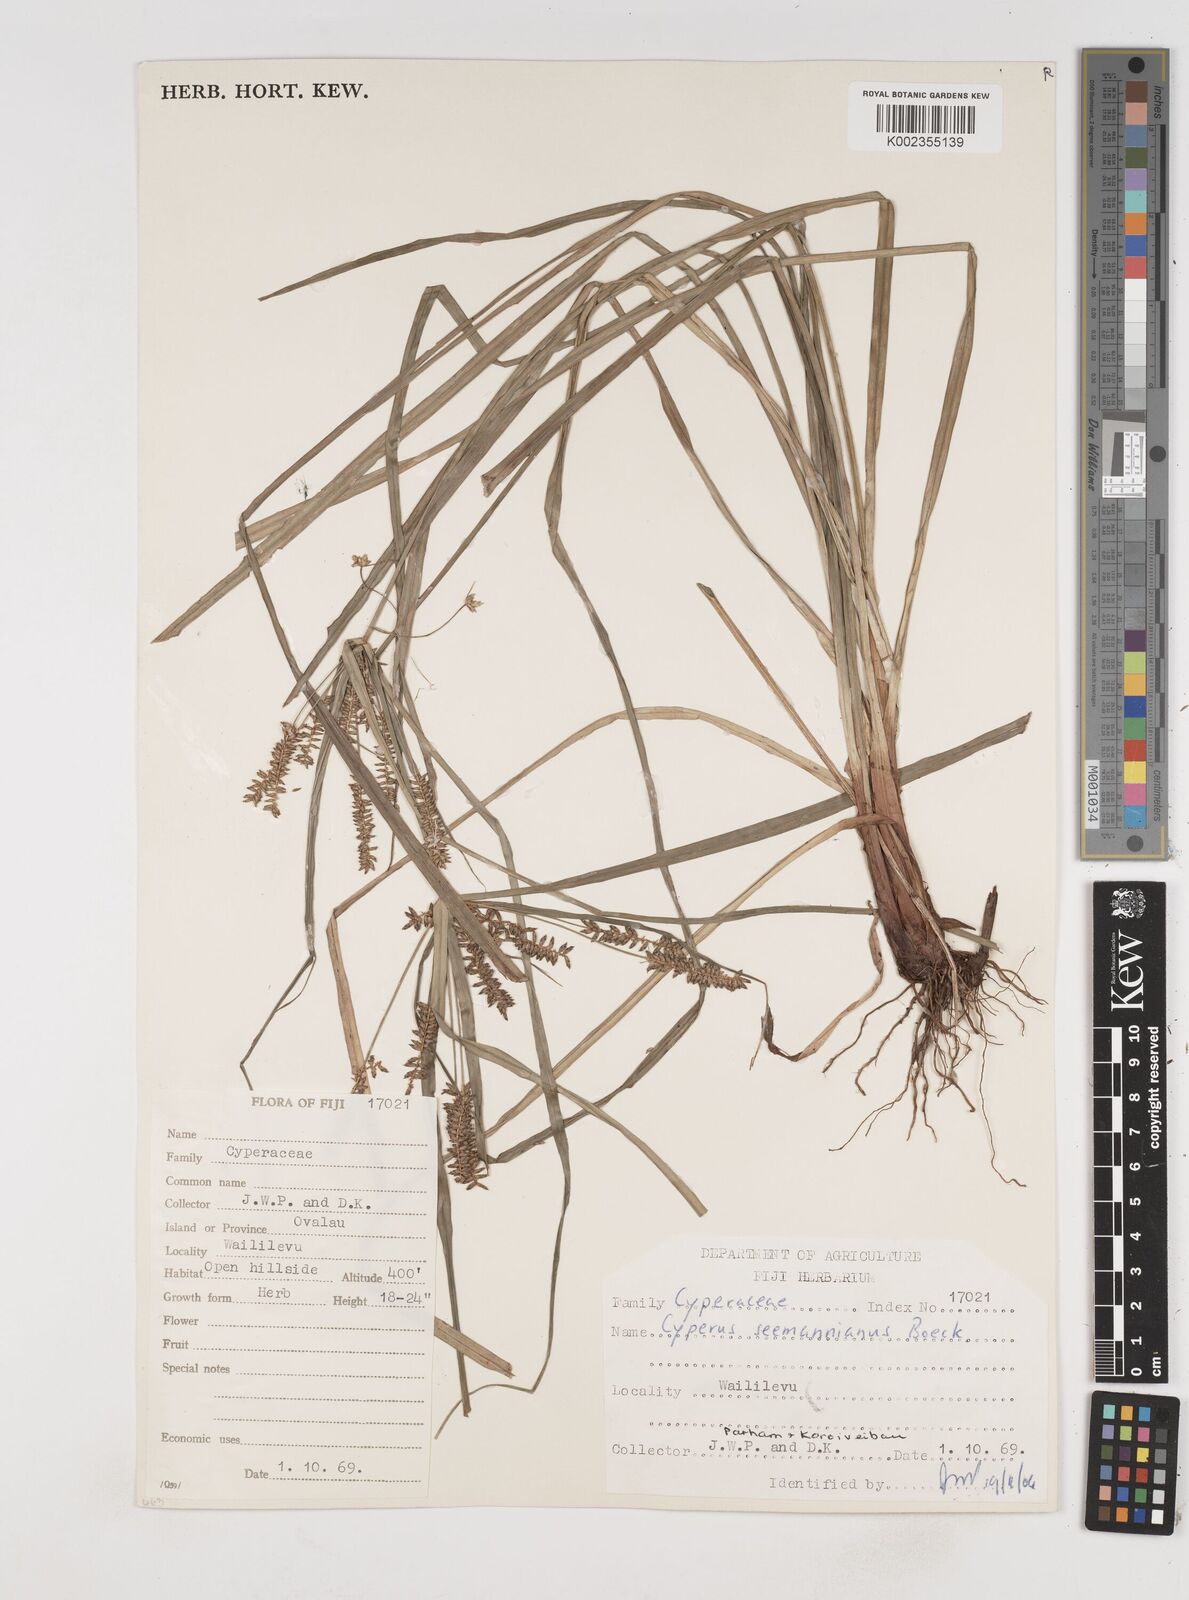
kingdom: Plantae
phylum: Tracheophyta
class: Liliopsida
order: Poales
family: Cyperaceae
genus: Cyperus
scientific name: Cyperus seemannianus
